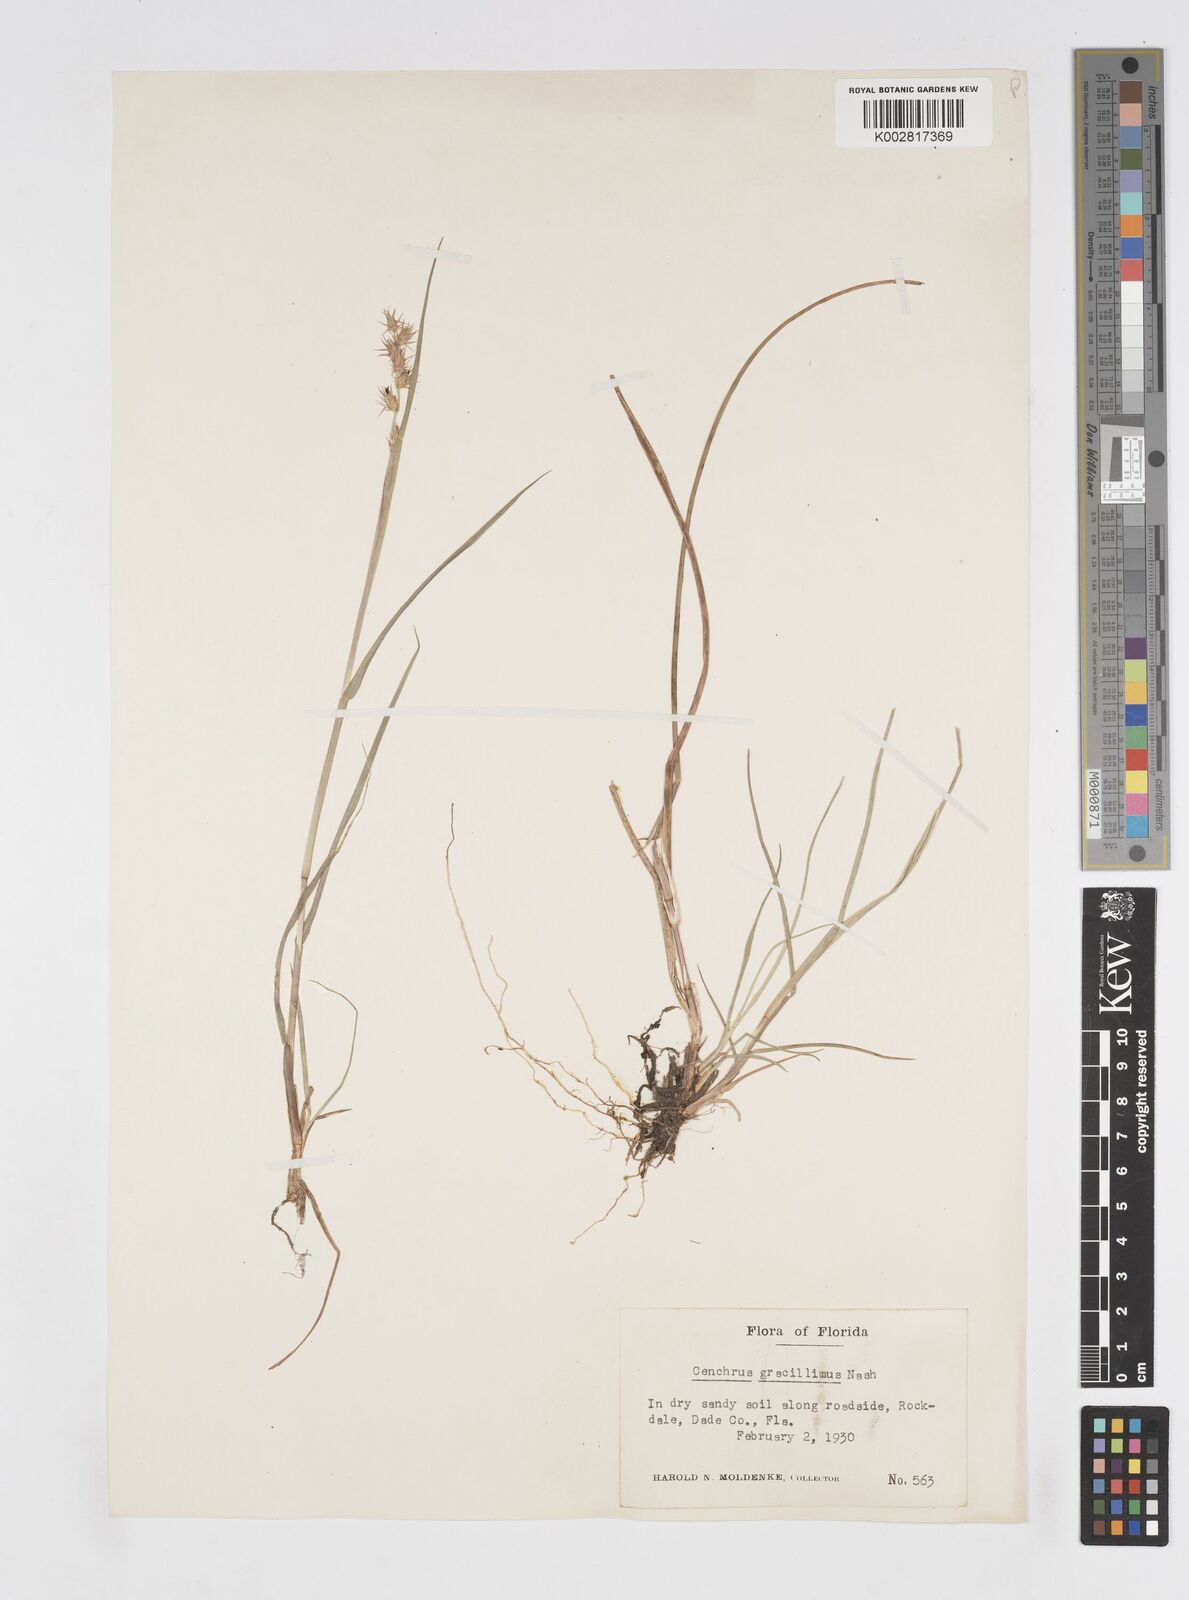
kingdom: Plantae
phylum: Tracheophyta
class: Liliopsida
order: Poales
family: Poaceae
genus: Cenchrus
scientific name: Cenchrus gracillimus
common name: Slender sandbur
